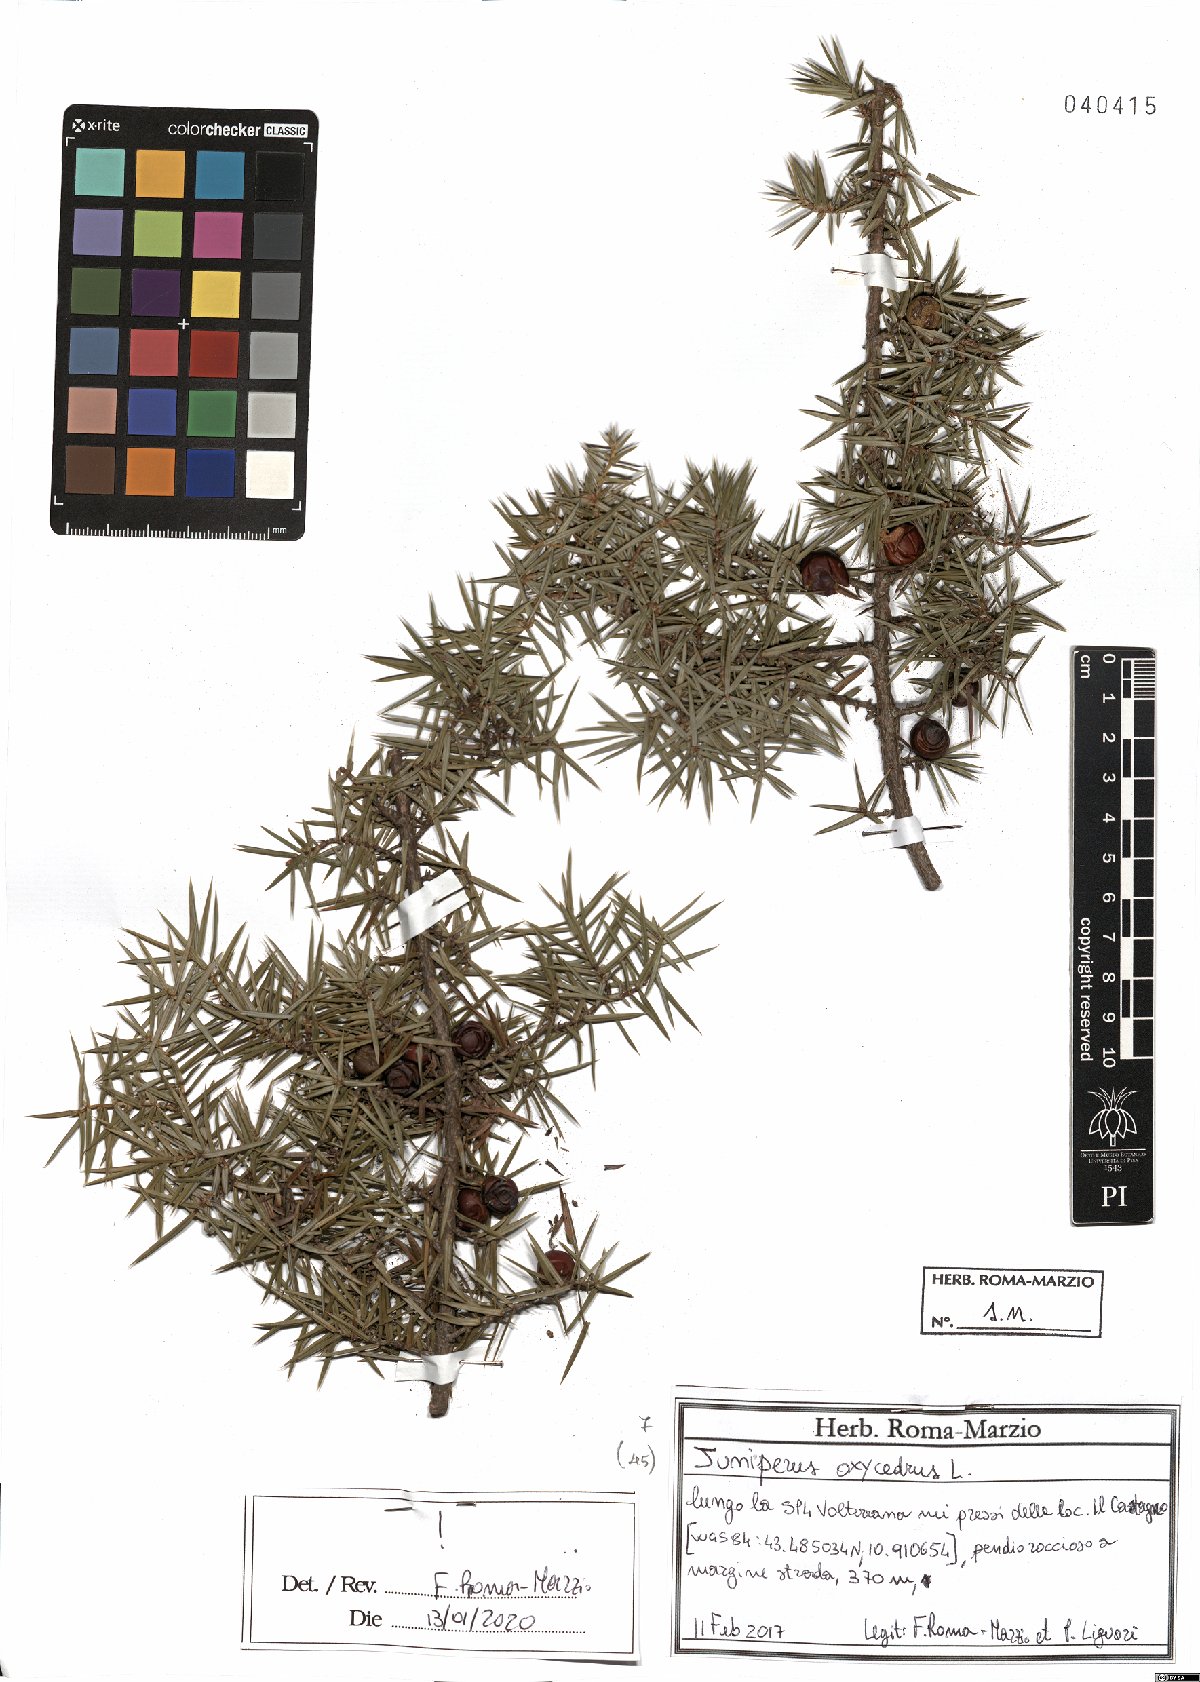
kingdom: Plantae
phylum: Tracheophyta
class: Pinopsida
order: Pinales
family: Cupressaceae
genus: Juniperus
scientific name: Juniperus oxycedrus
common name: Prickly juniper
